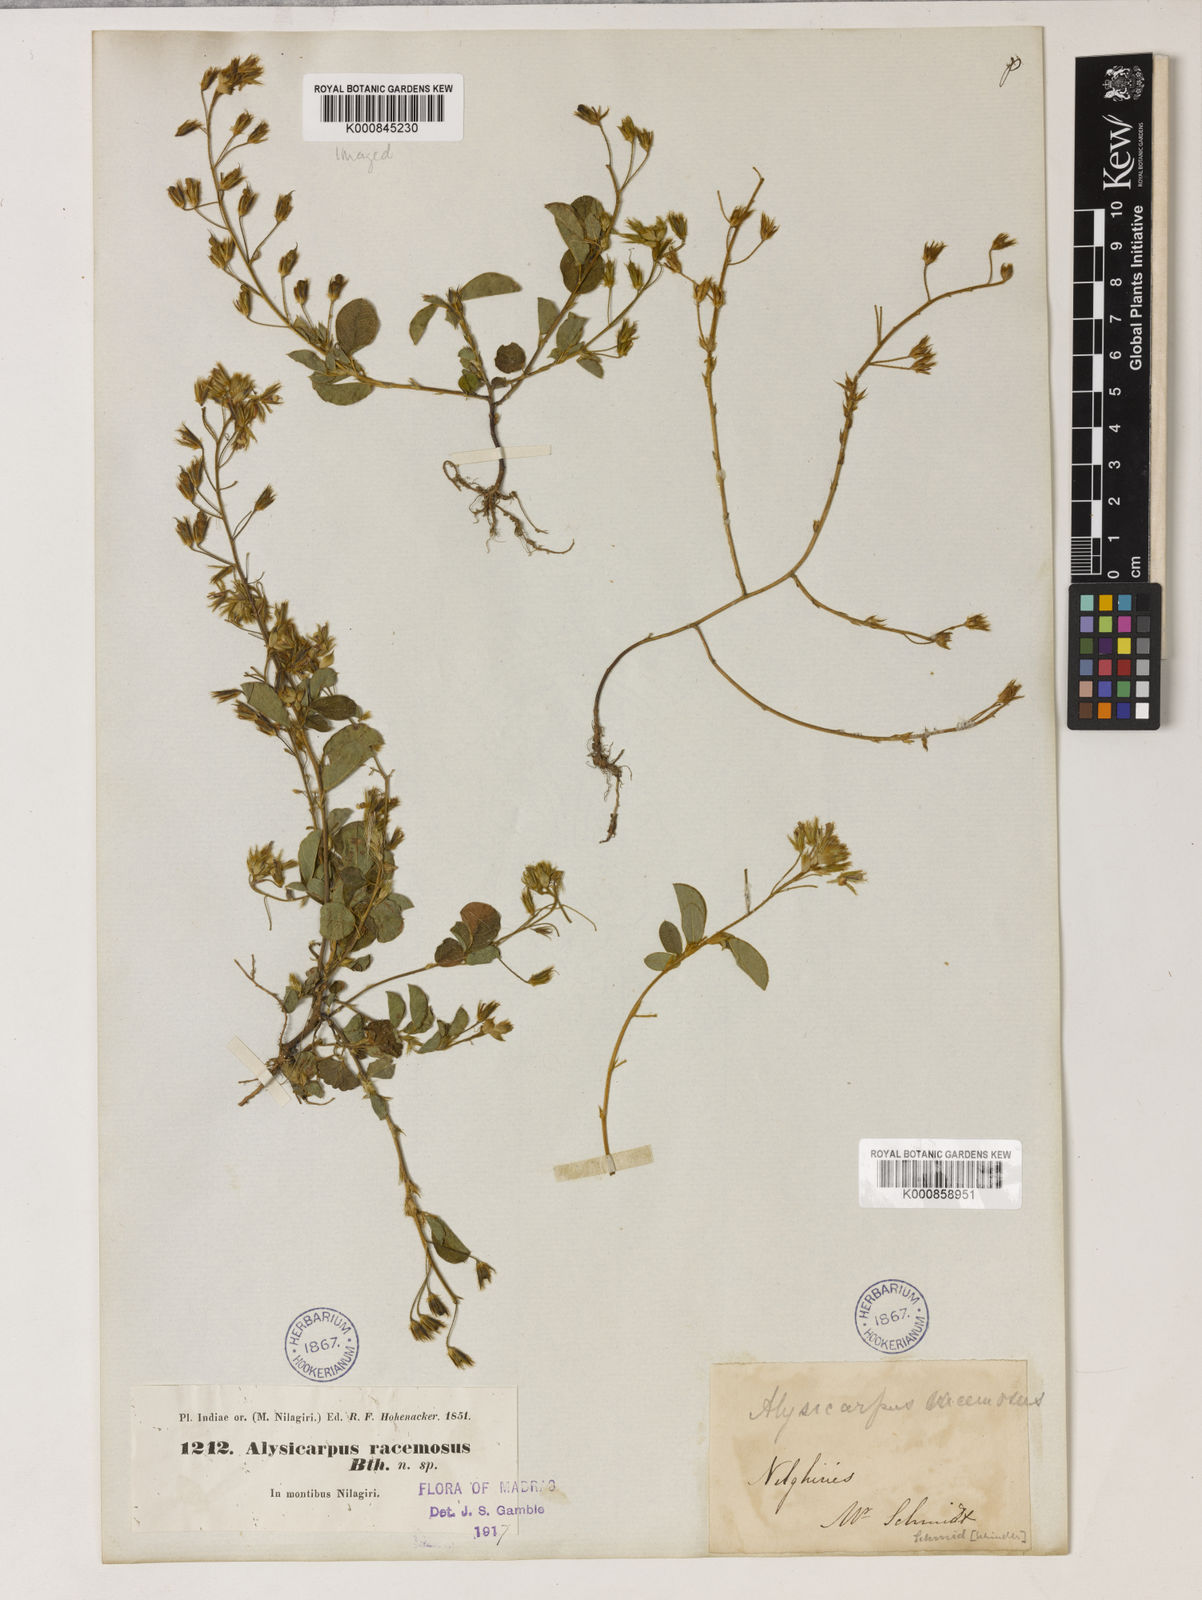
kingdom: Plantae
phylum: Tracheophyta
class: Magnoliopsida
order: Fabales
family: Fabaceae
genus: Alysicarpus
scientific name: Alysicarpus belgaumensis
